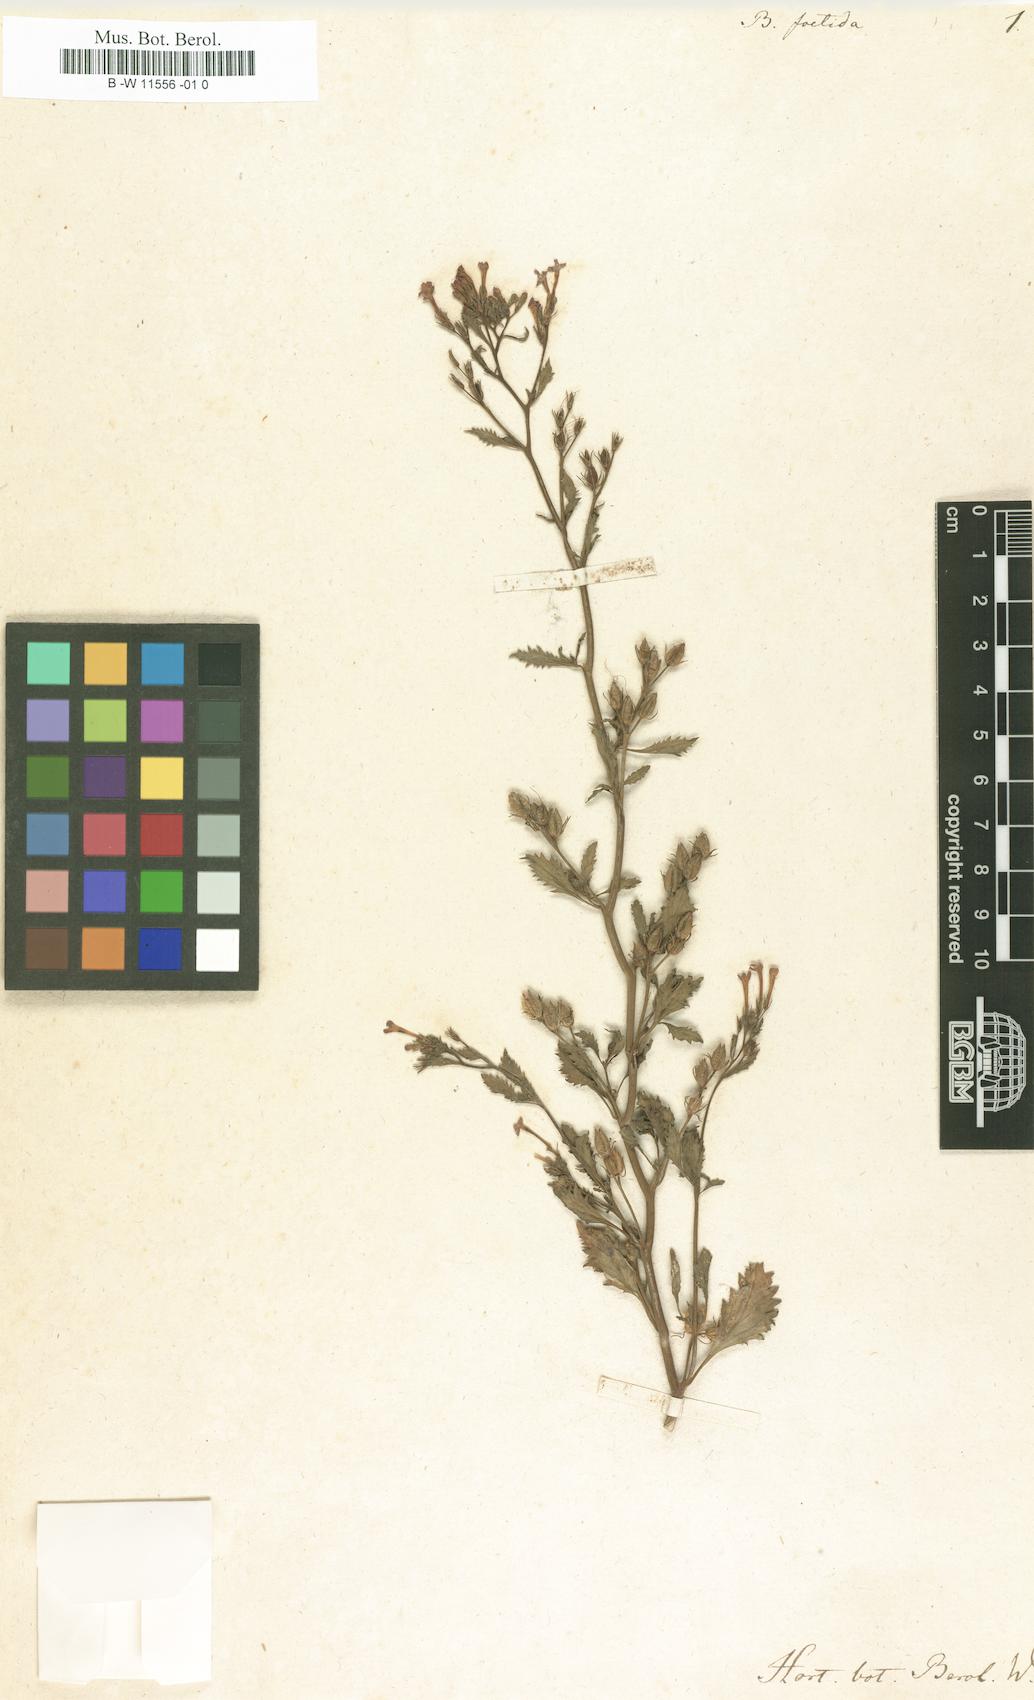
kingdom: Plantae
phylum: Tracheophyta
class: Magnoliopsida
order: Lamiales
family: Scrophulariaceae
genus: Sutera
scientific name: Sutera foetida
